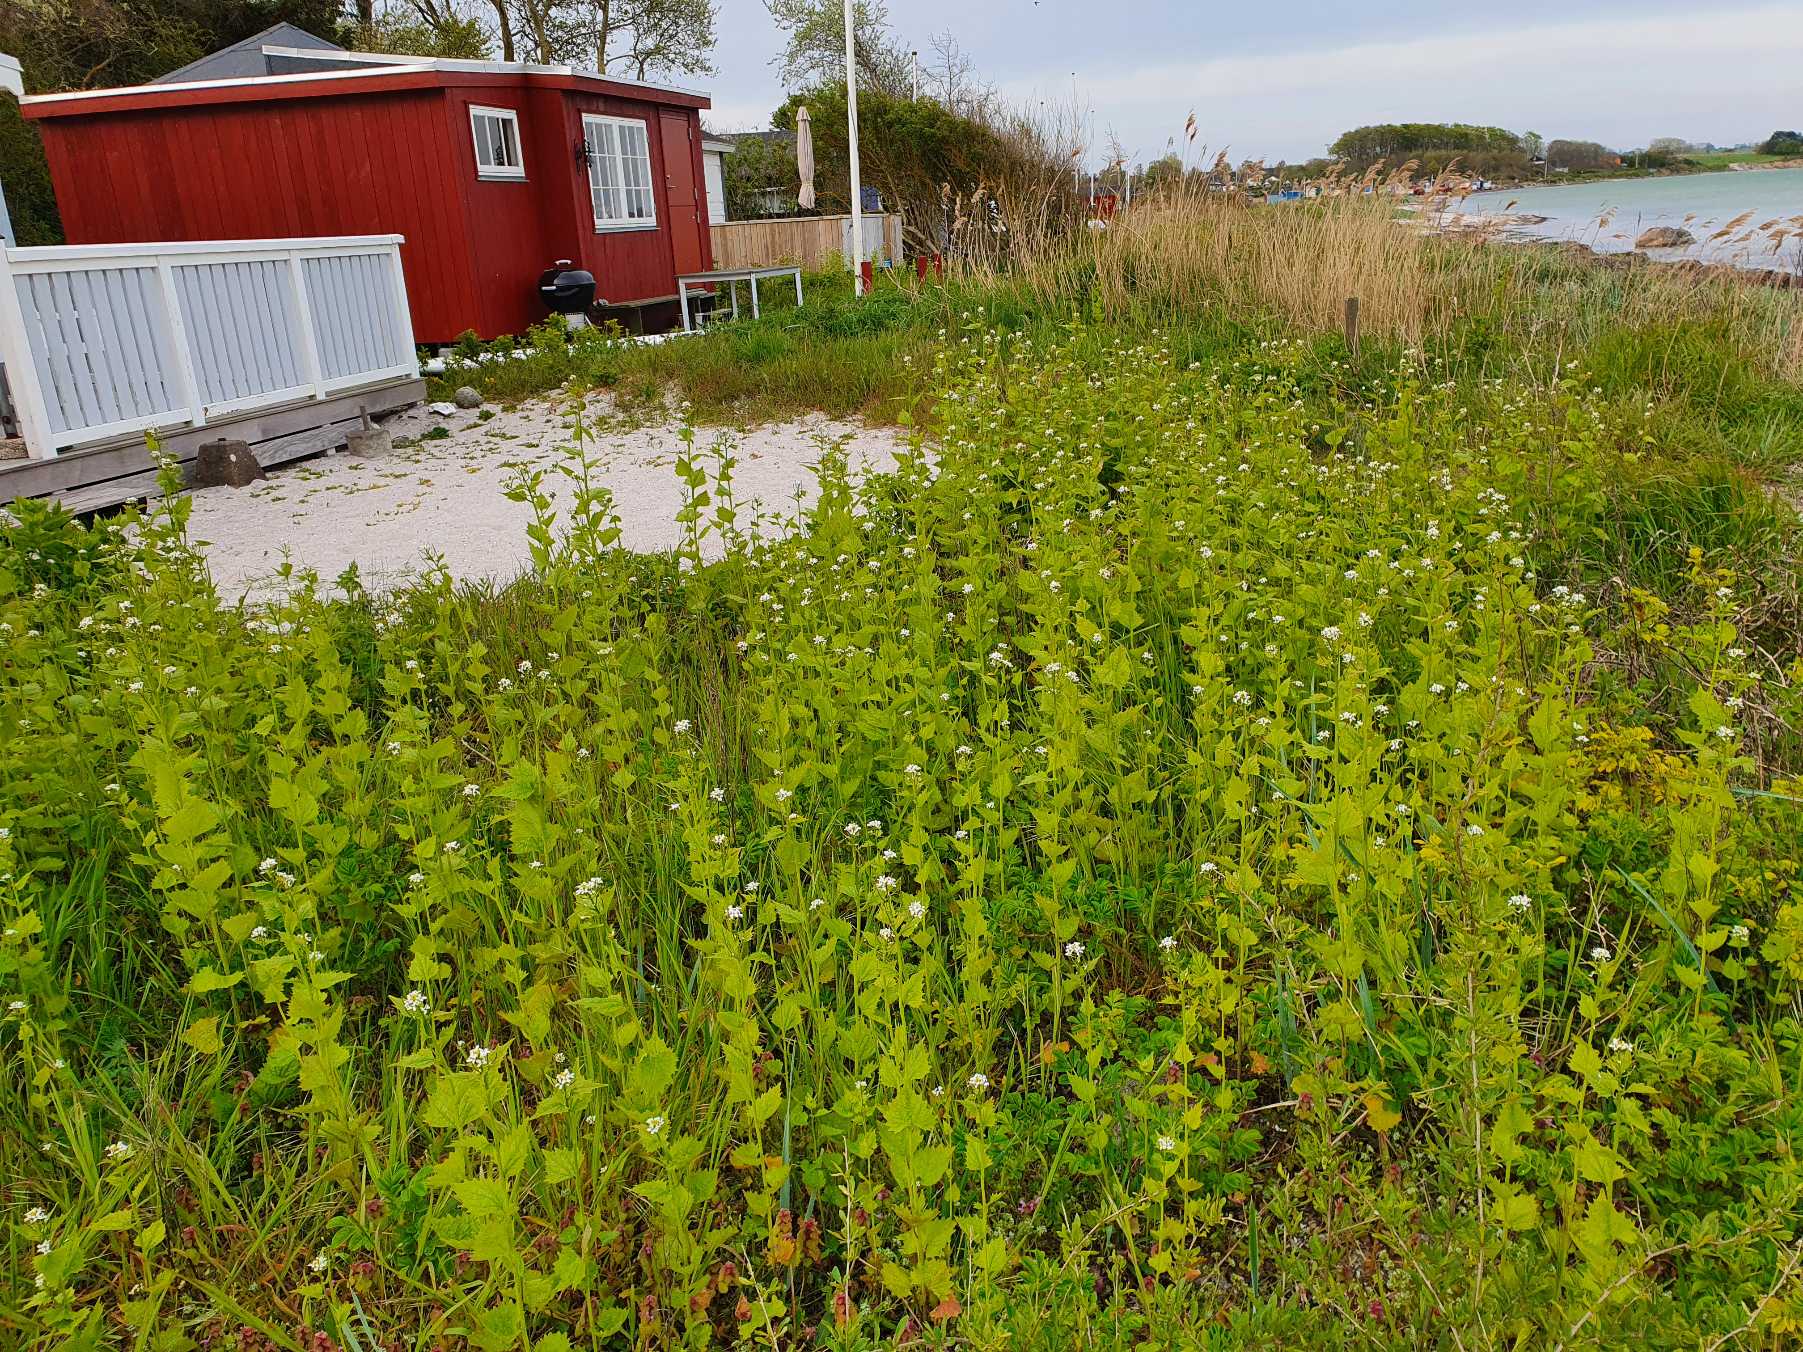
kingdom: Plantae
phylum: Tracheophyta
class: Magnoliopsida
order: Brassicales
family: Brassicaceae
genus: Alliaria
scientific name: Alliaria petiolata
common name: Løgkarse
